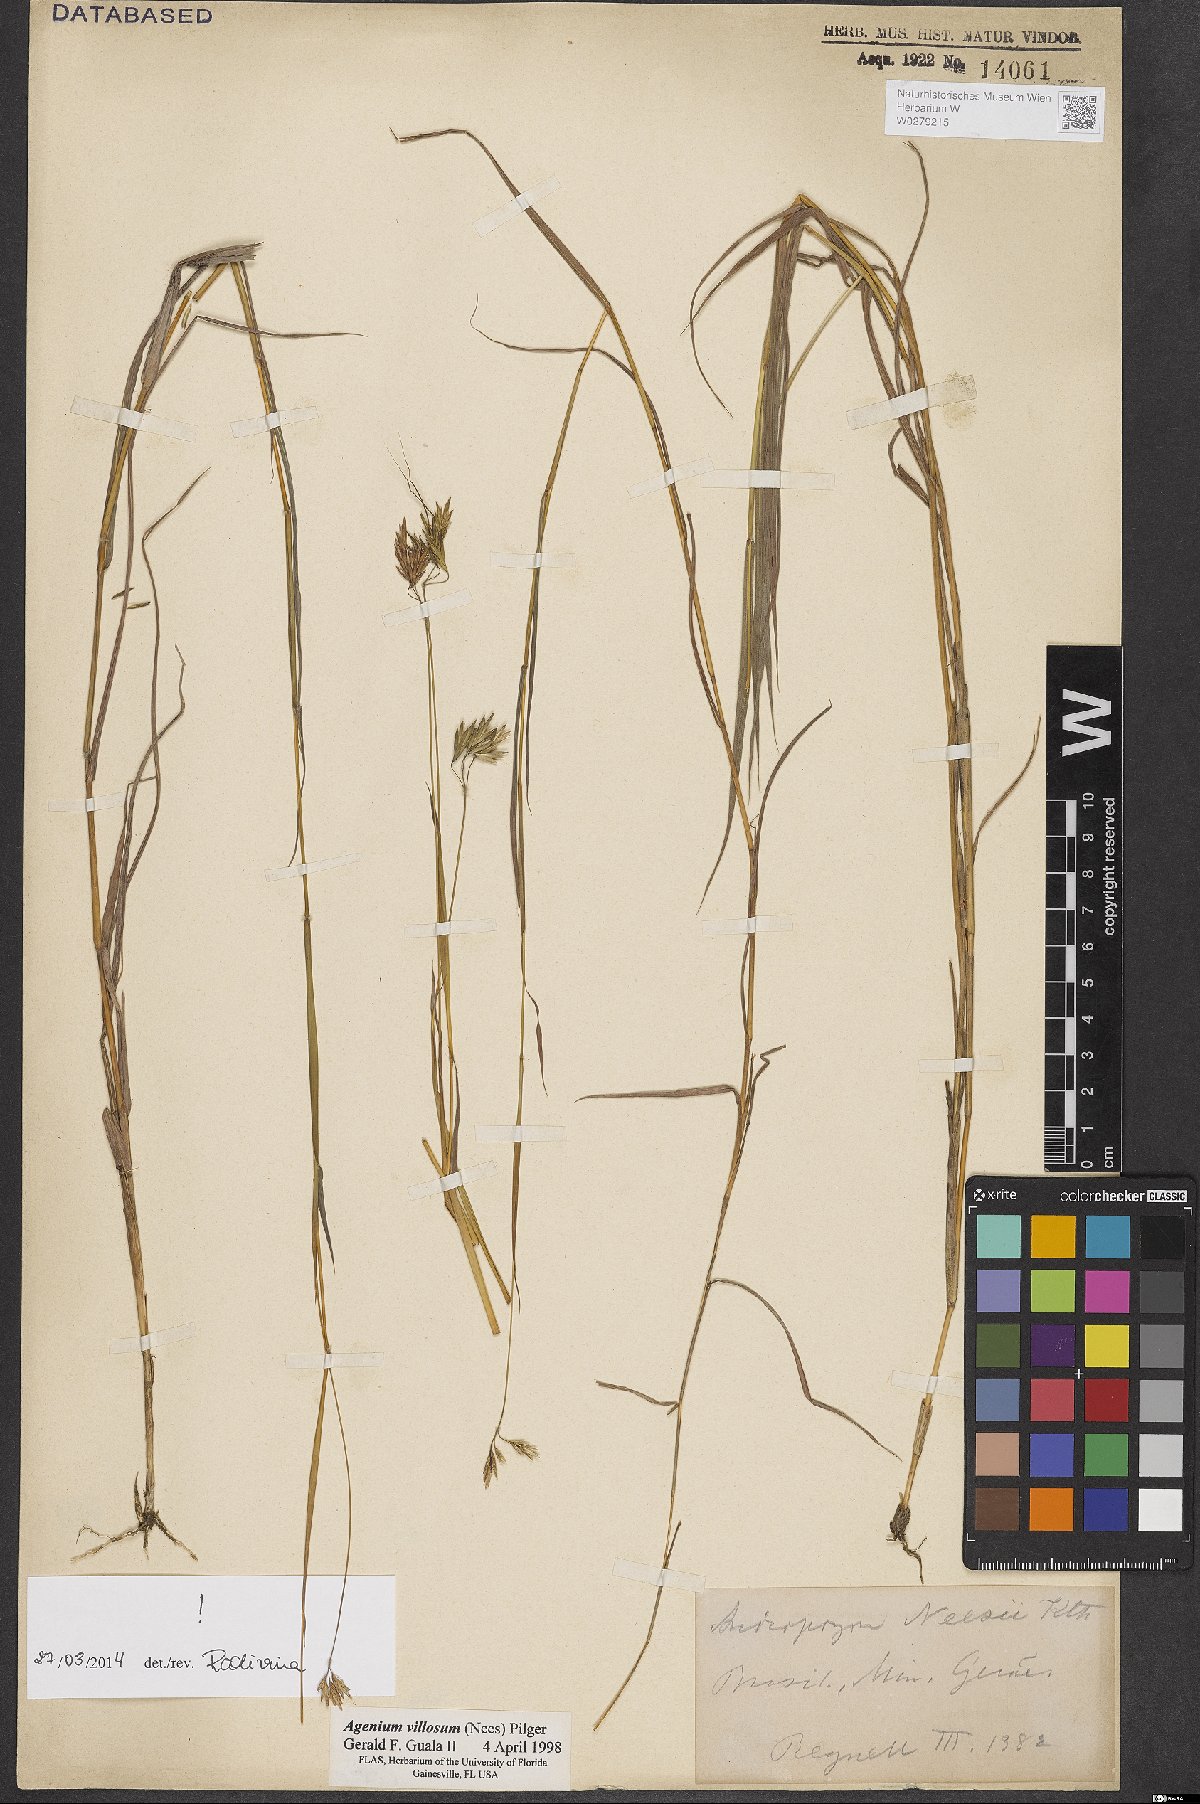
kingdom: Plantae
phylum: Tracheophyta
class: Liliopsida
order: Poales
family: Poaceae
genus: Agenium
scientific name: Agenium villosum
